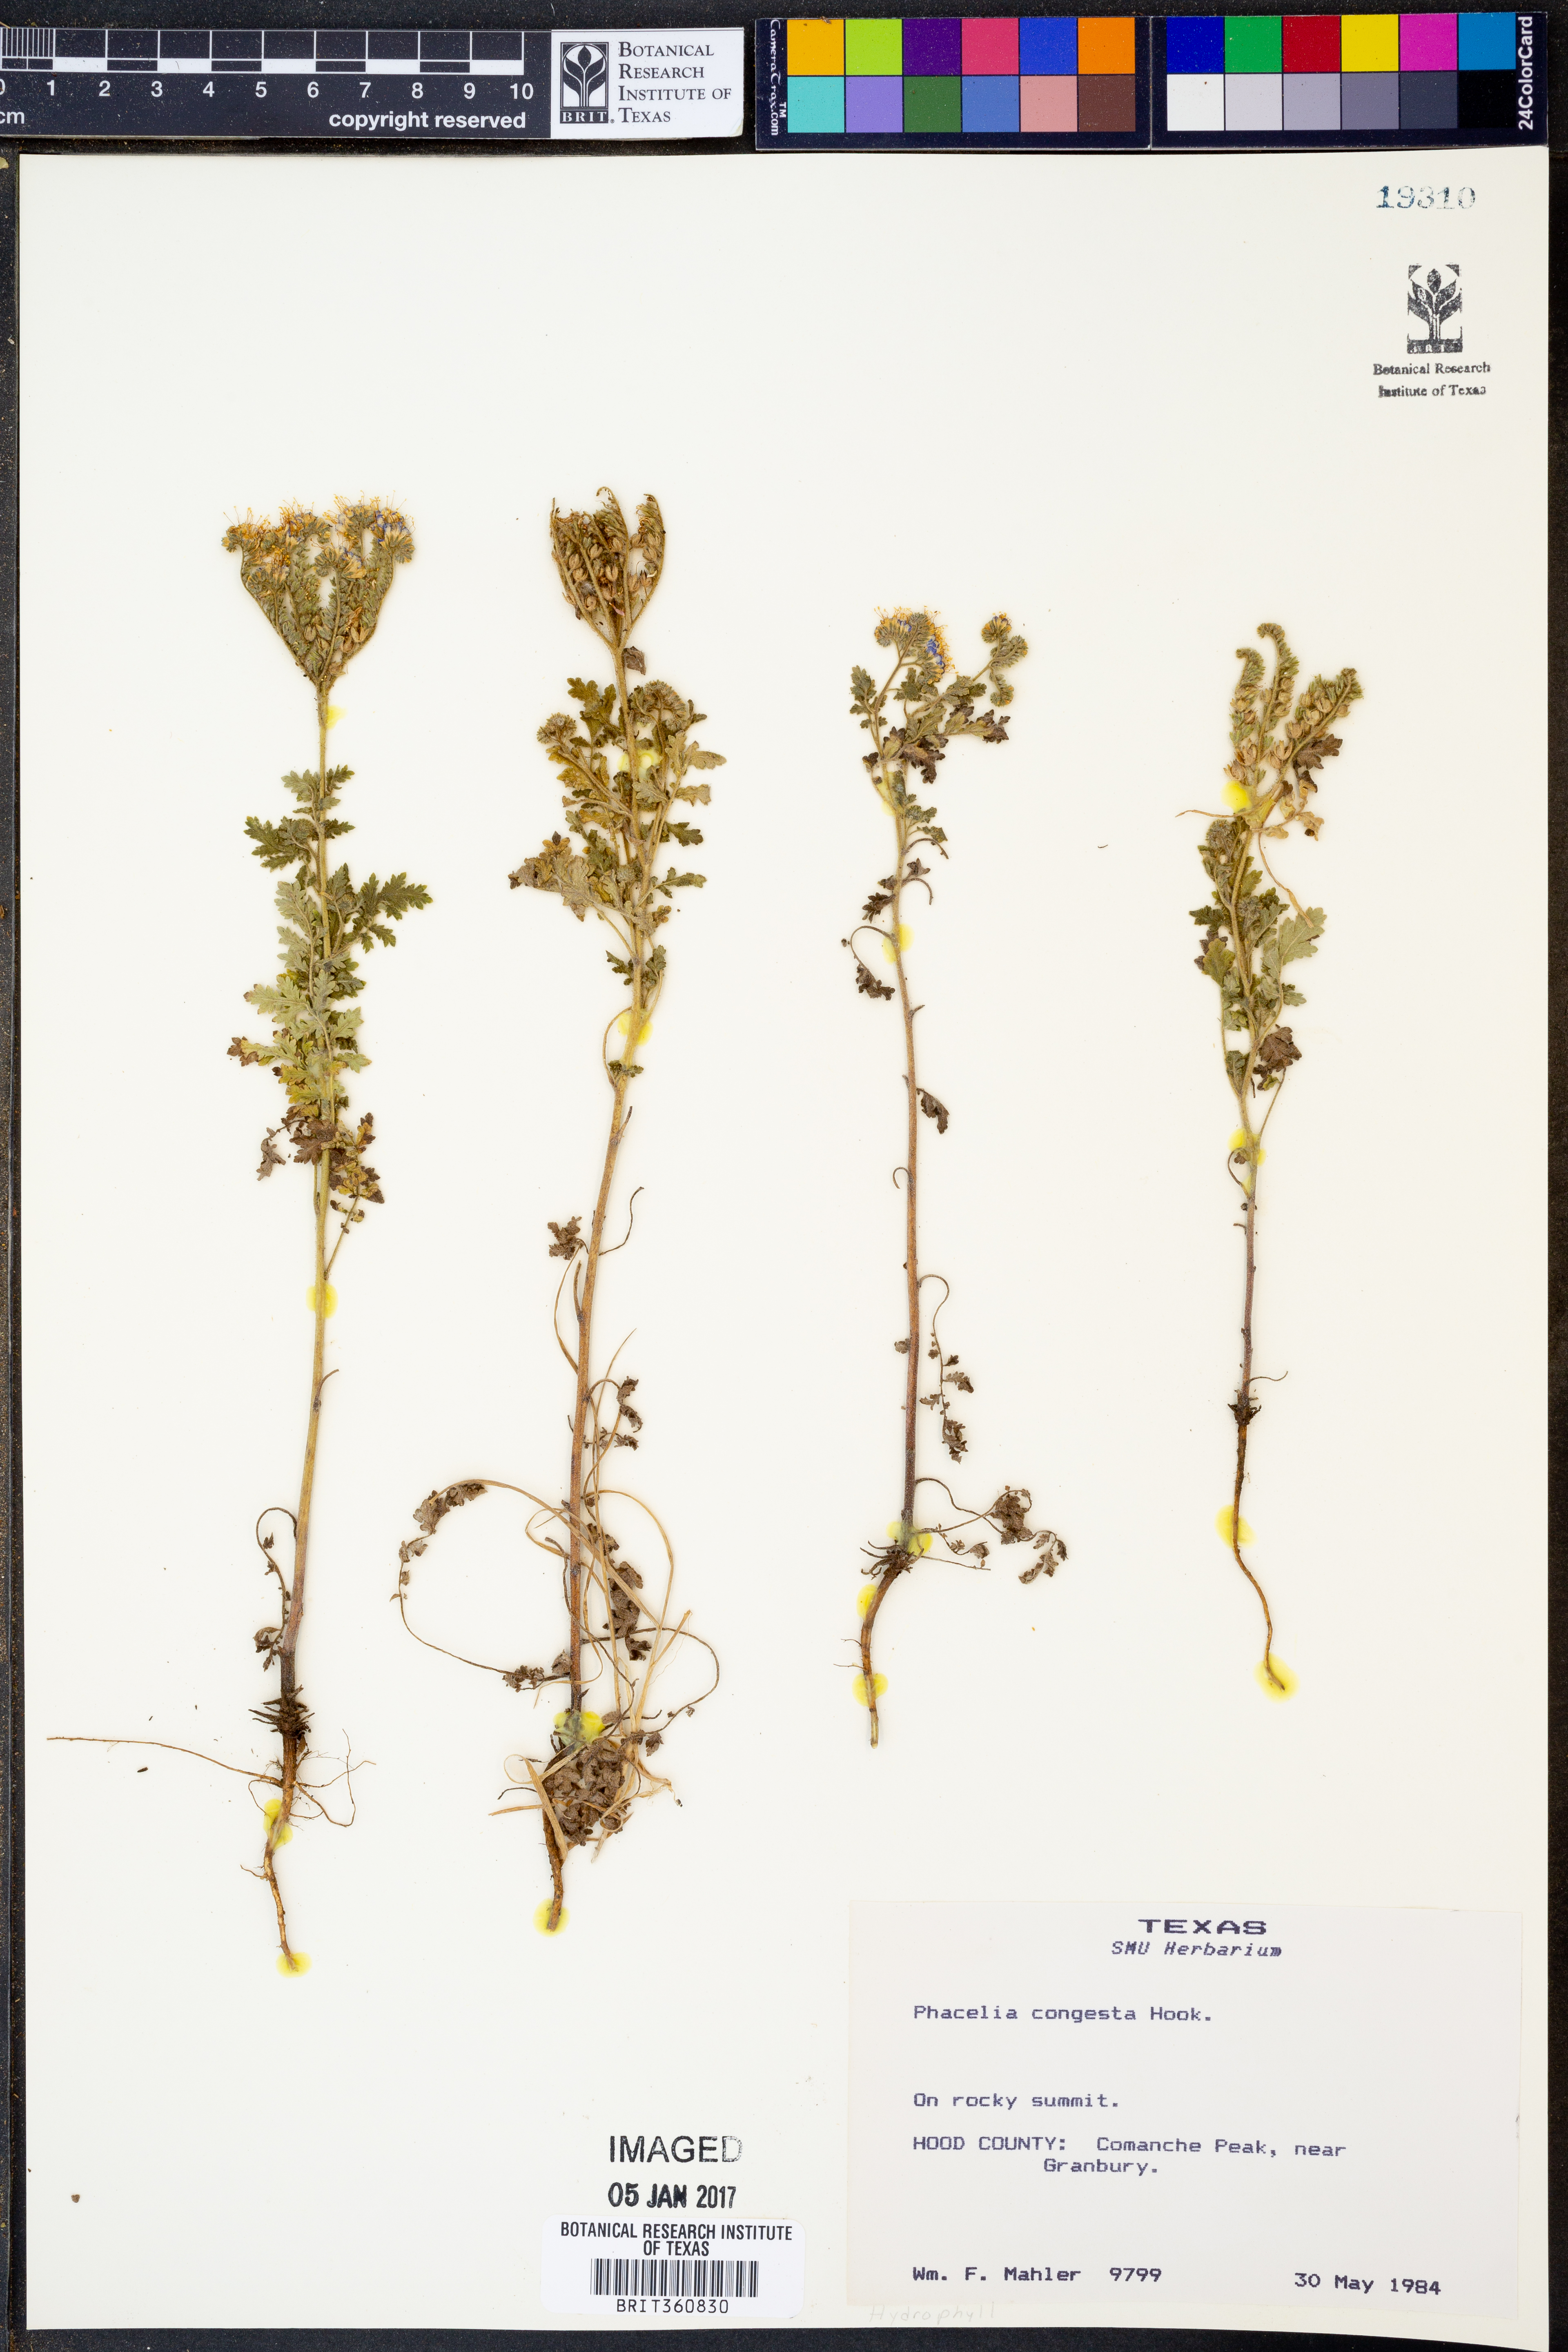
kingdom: Plantae
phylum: Tracheophyta
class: Magnoliopsida
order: Boraginales
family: Hydrophyllaceae
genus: Phacelia
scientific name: Phacelia congesta
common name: Blue curls
